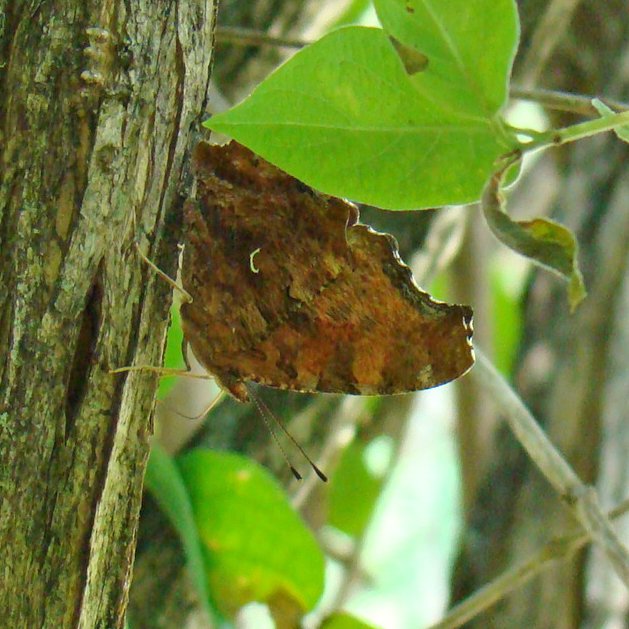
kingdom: Animalia
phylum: Arthropoda
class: Insecta
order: Lepidoptera
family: Nymphalidae
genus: Polygonia
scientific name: Polygonia comma
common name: Eastern Comma
